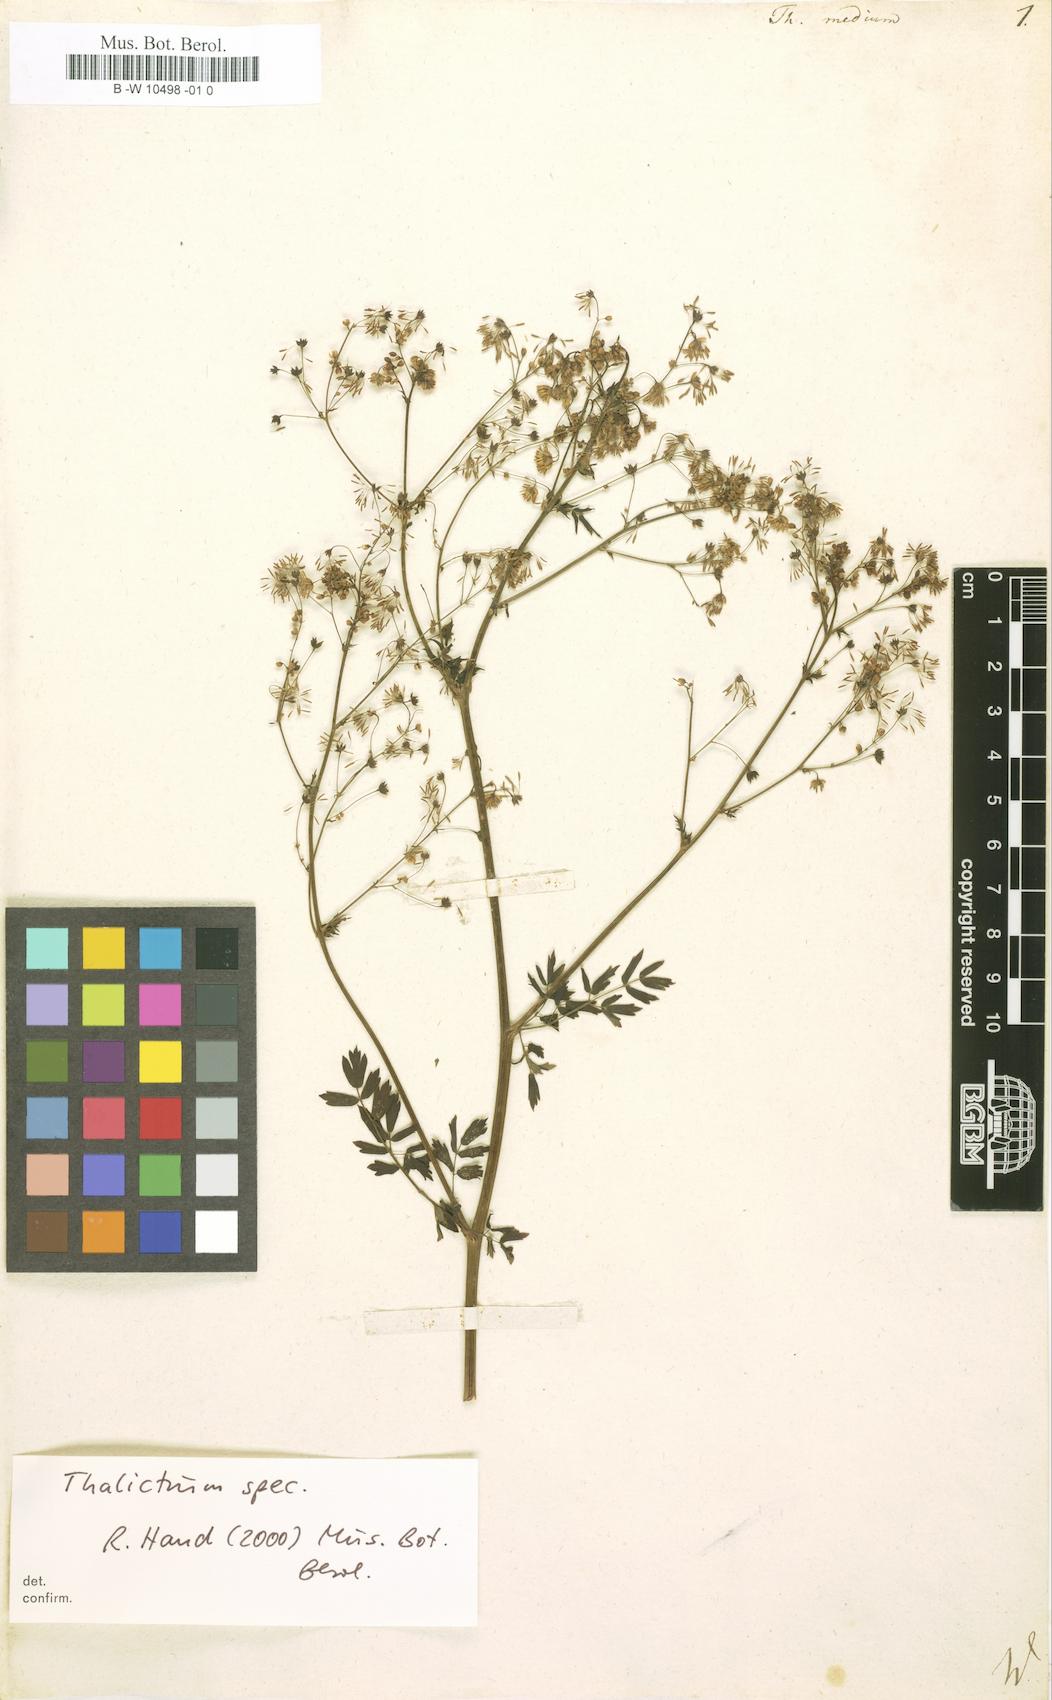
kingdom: Plantae
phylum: Tracheophyta
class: Magnoliopsida
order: Ranunculales
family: Ranunculaceae
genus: Thalictrum
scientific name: Thalictrum medium
